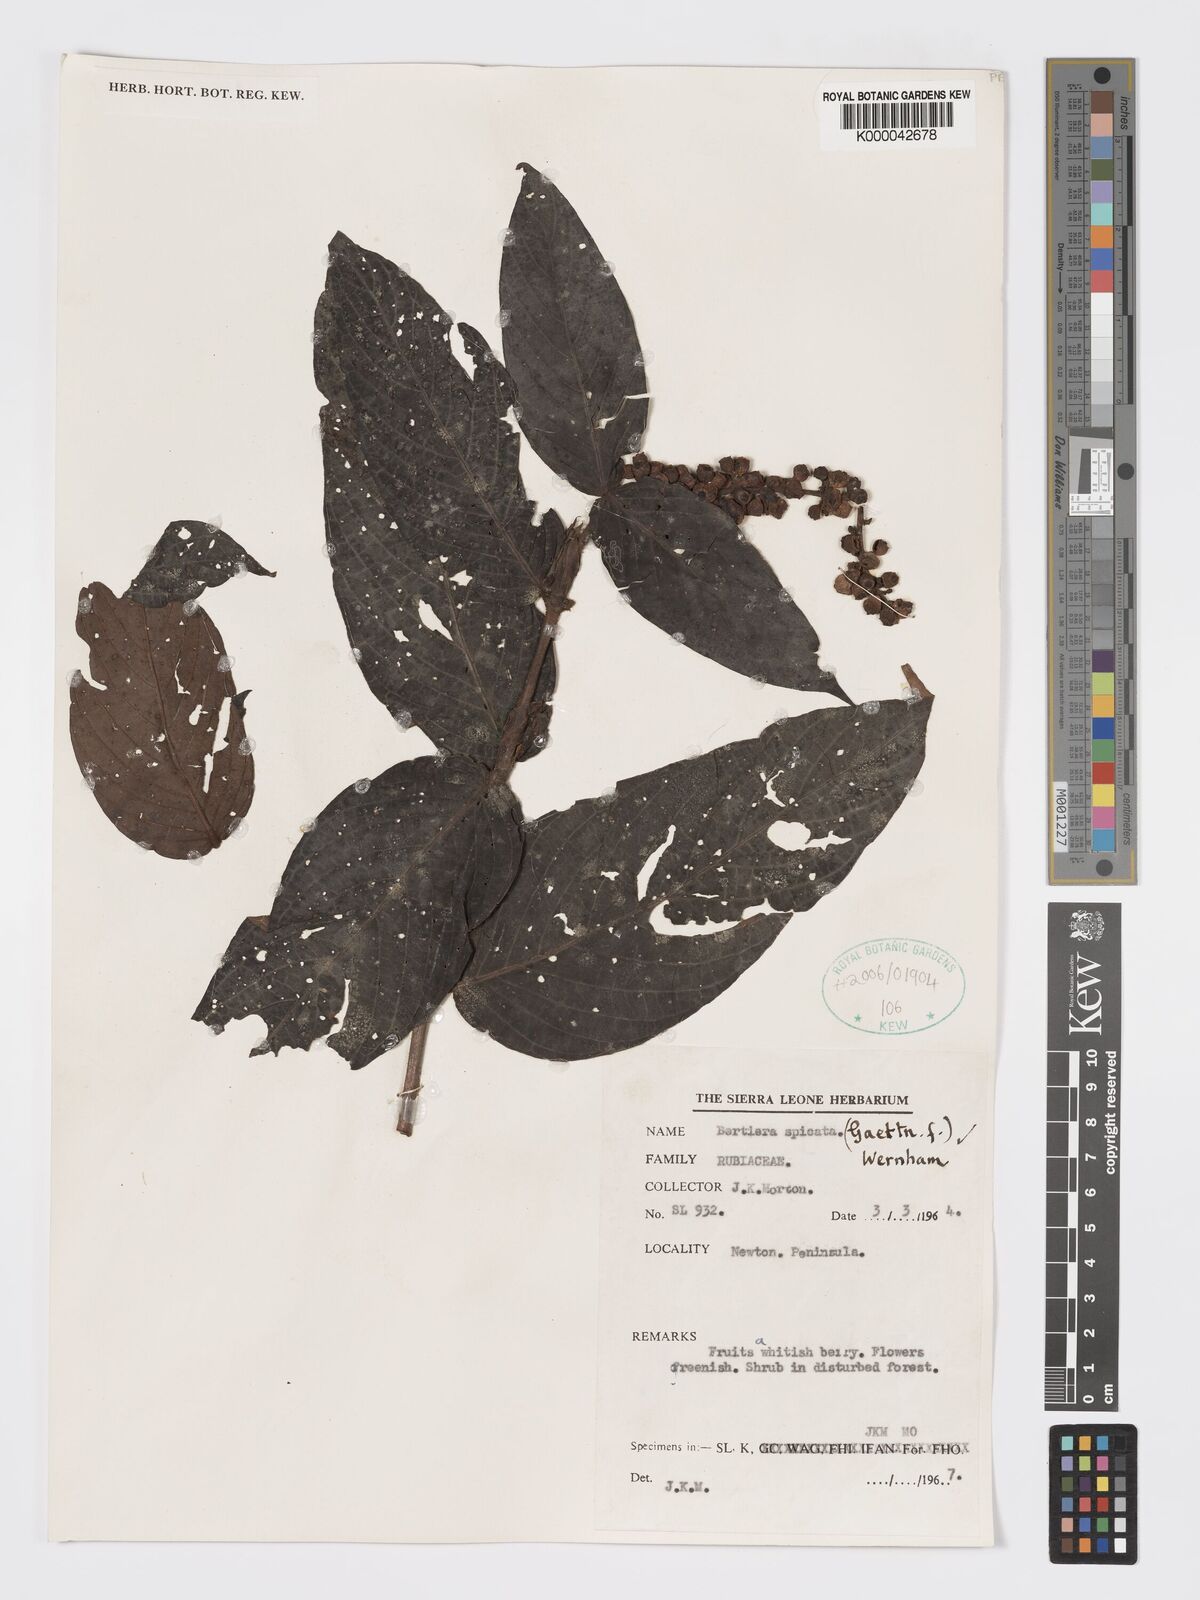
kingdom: Plantae
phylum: Tracheophyta
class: Magnoliopsida
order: Gentianales
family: Rubiaceae
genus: Bertiera
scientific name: Bertiera
